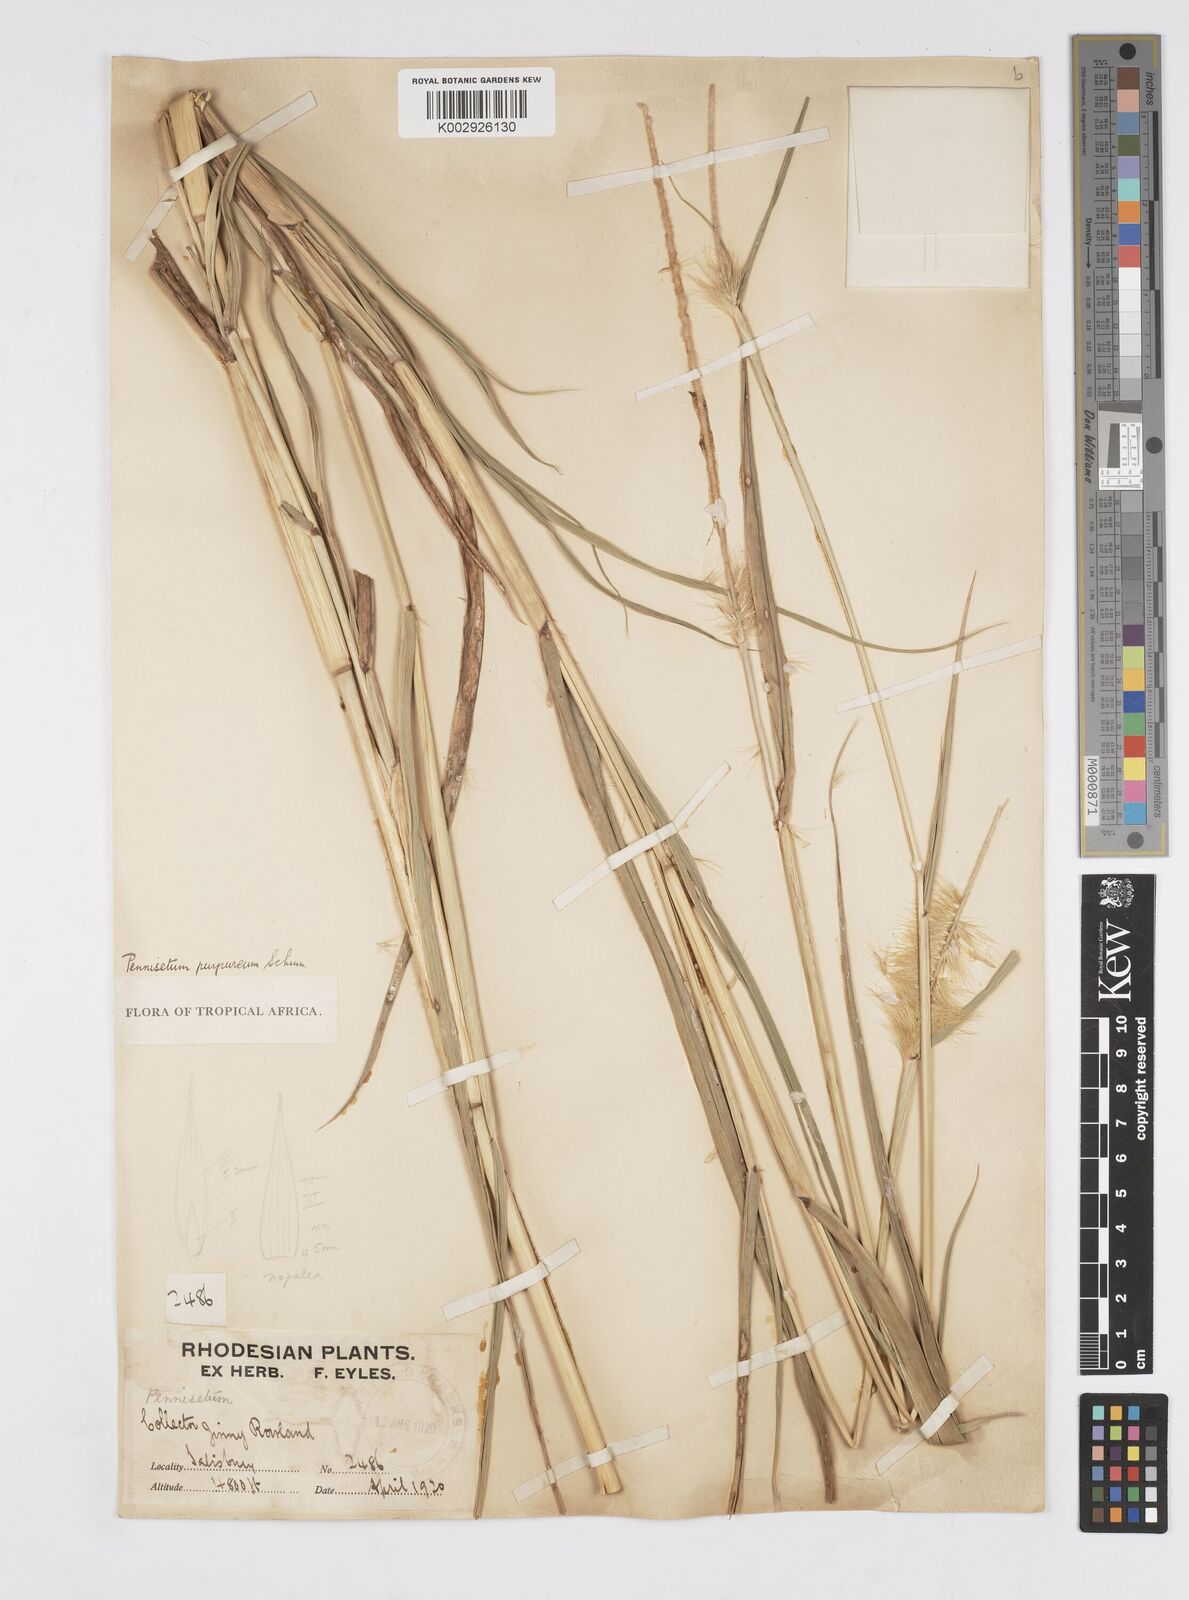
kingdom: Plantae
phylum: Tracheophyta
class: Liliopsida
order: Poales
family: Poaceae
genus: Cenchrus
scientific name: Cenchrus purpureus
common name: Elephant grass
